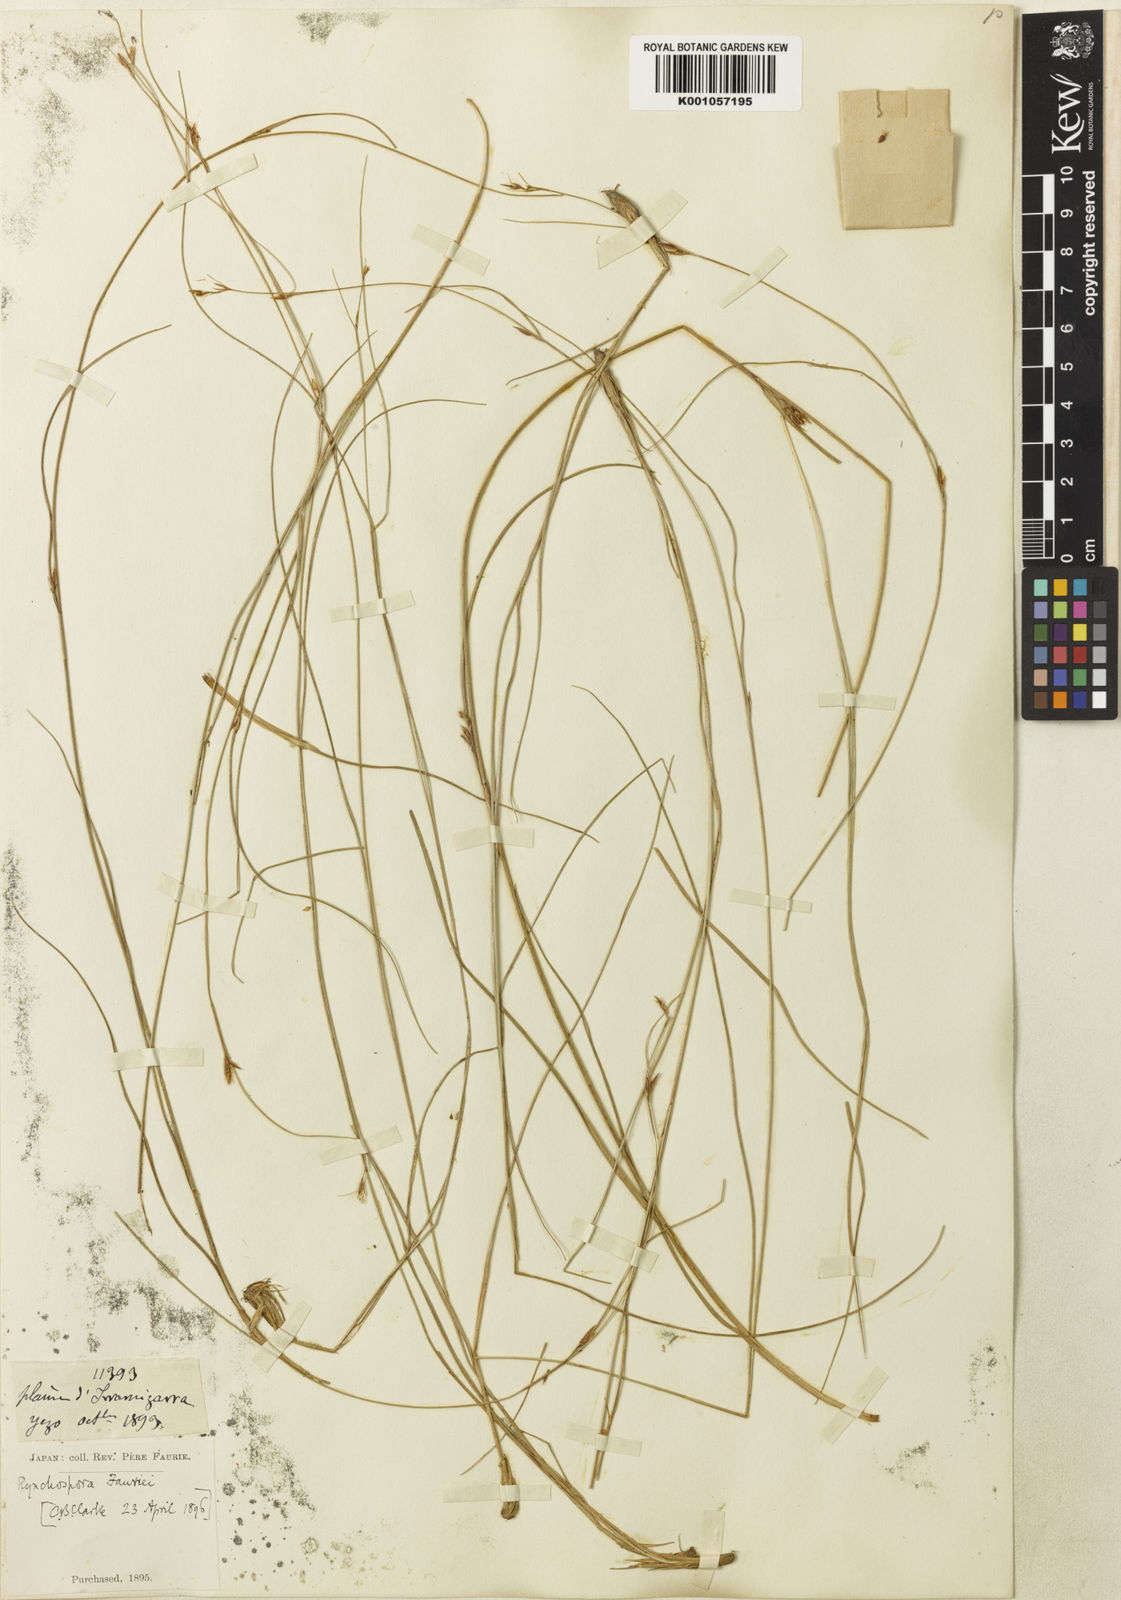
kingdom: Plantae
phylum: Tracheophyta
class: Liliopsida
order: Poales
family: Cyperaceae
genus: Rhynchospora
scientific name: Rhynchospora
